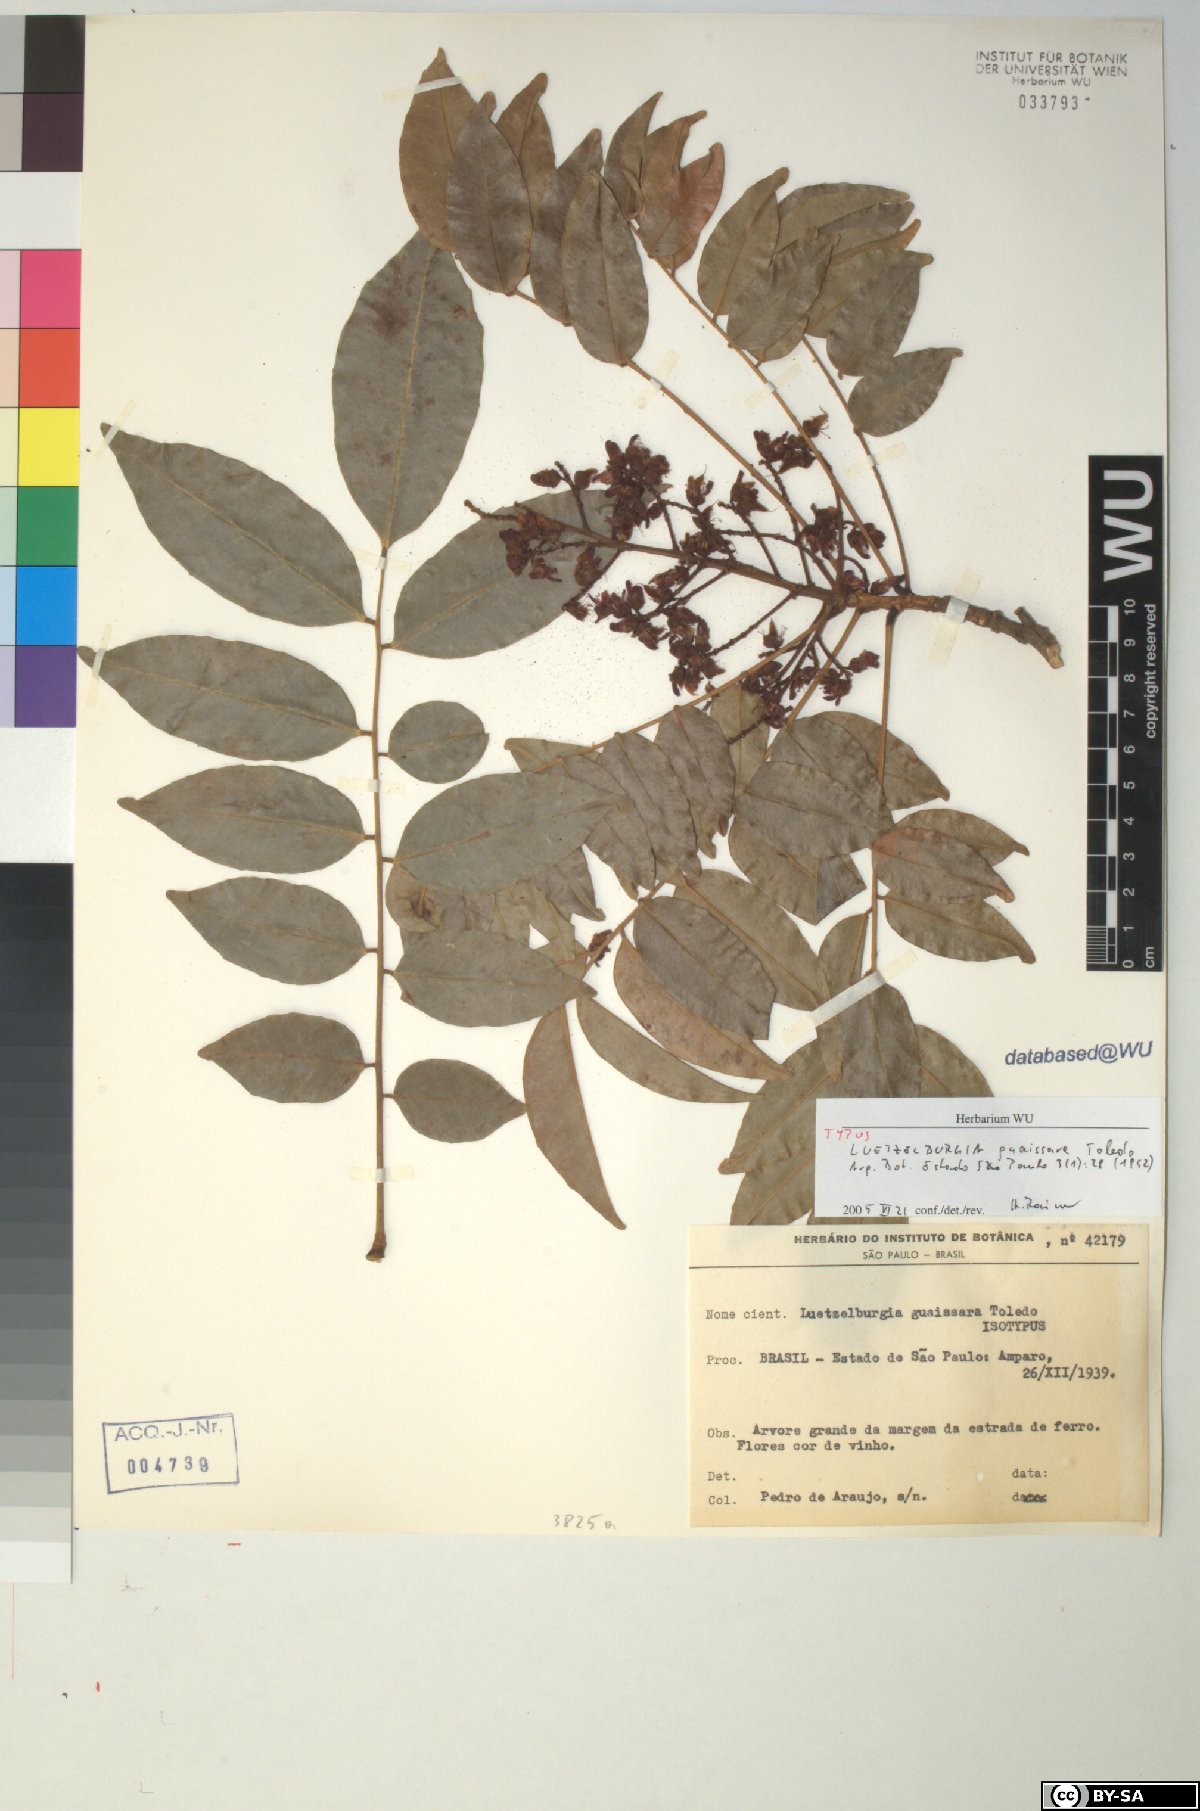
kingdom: Plantae
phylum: Tracheophyta
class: Magnoliopsida
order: Fabales
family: Fabaceae
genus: Luetzelburgia
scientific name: Luetzelburgia guaissara
